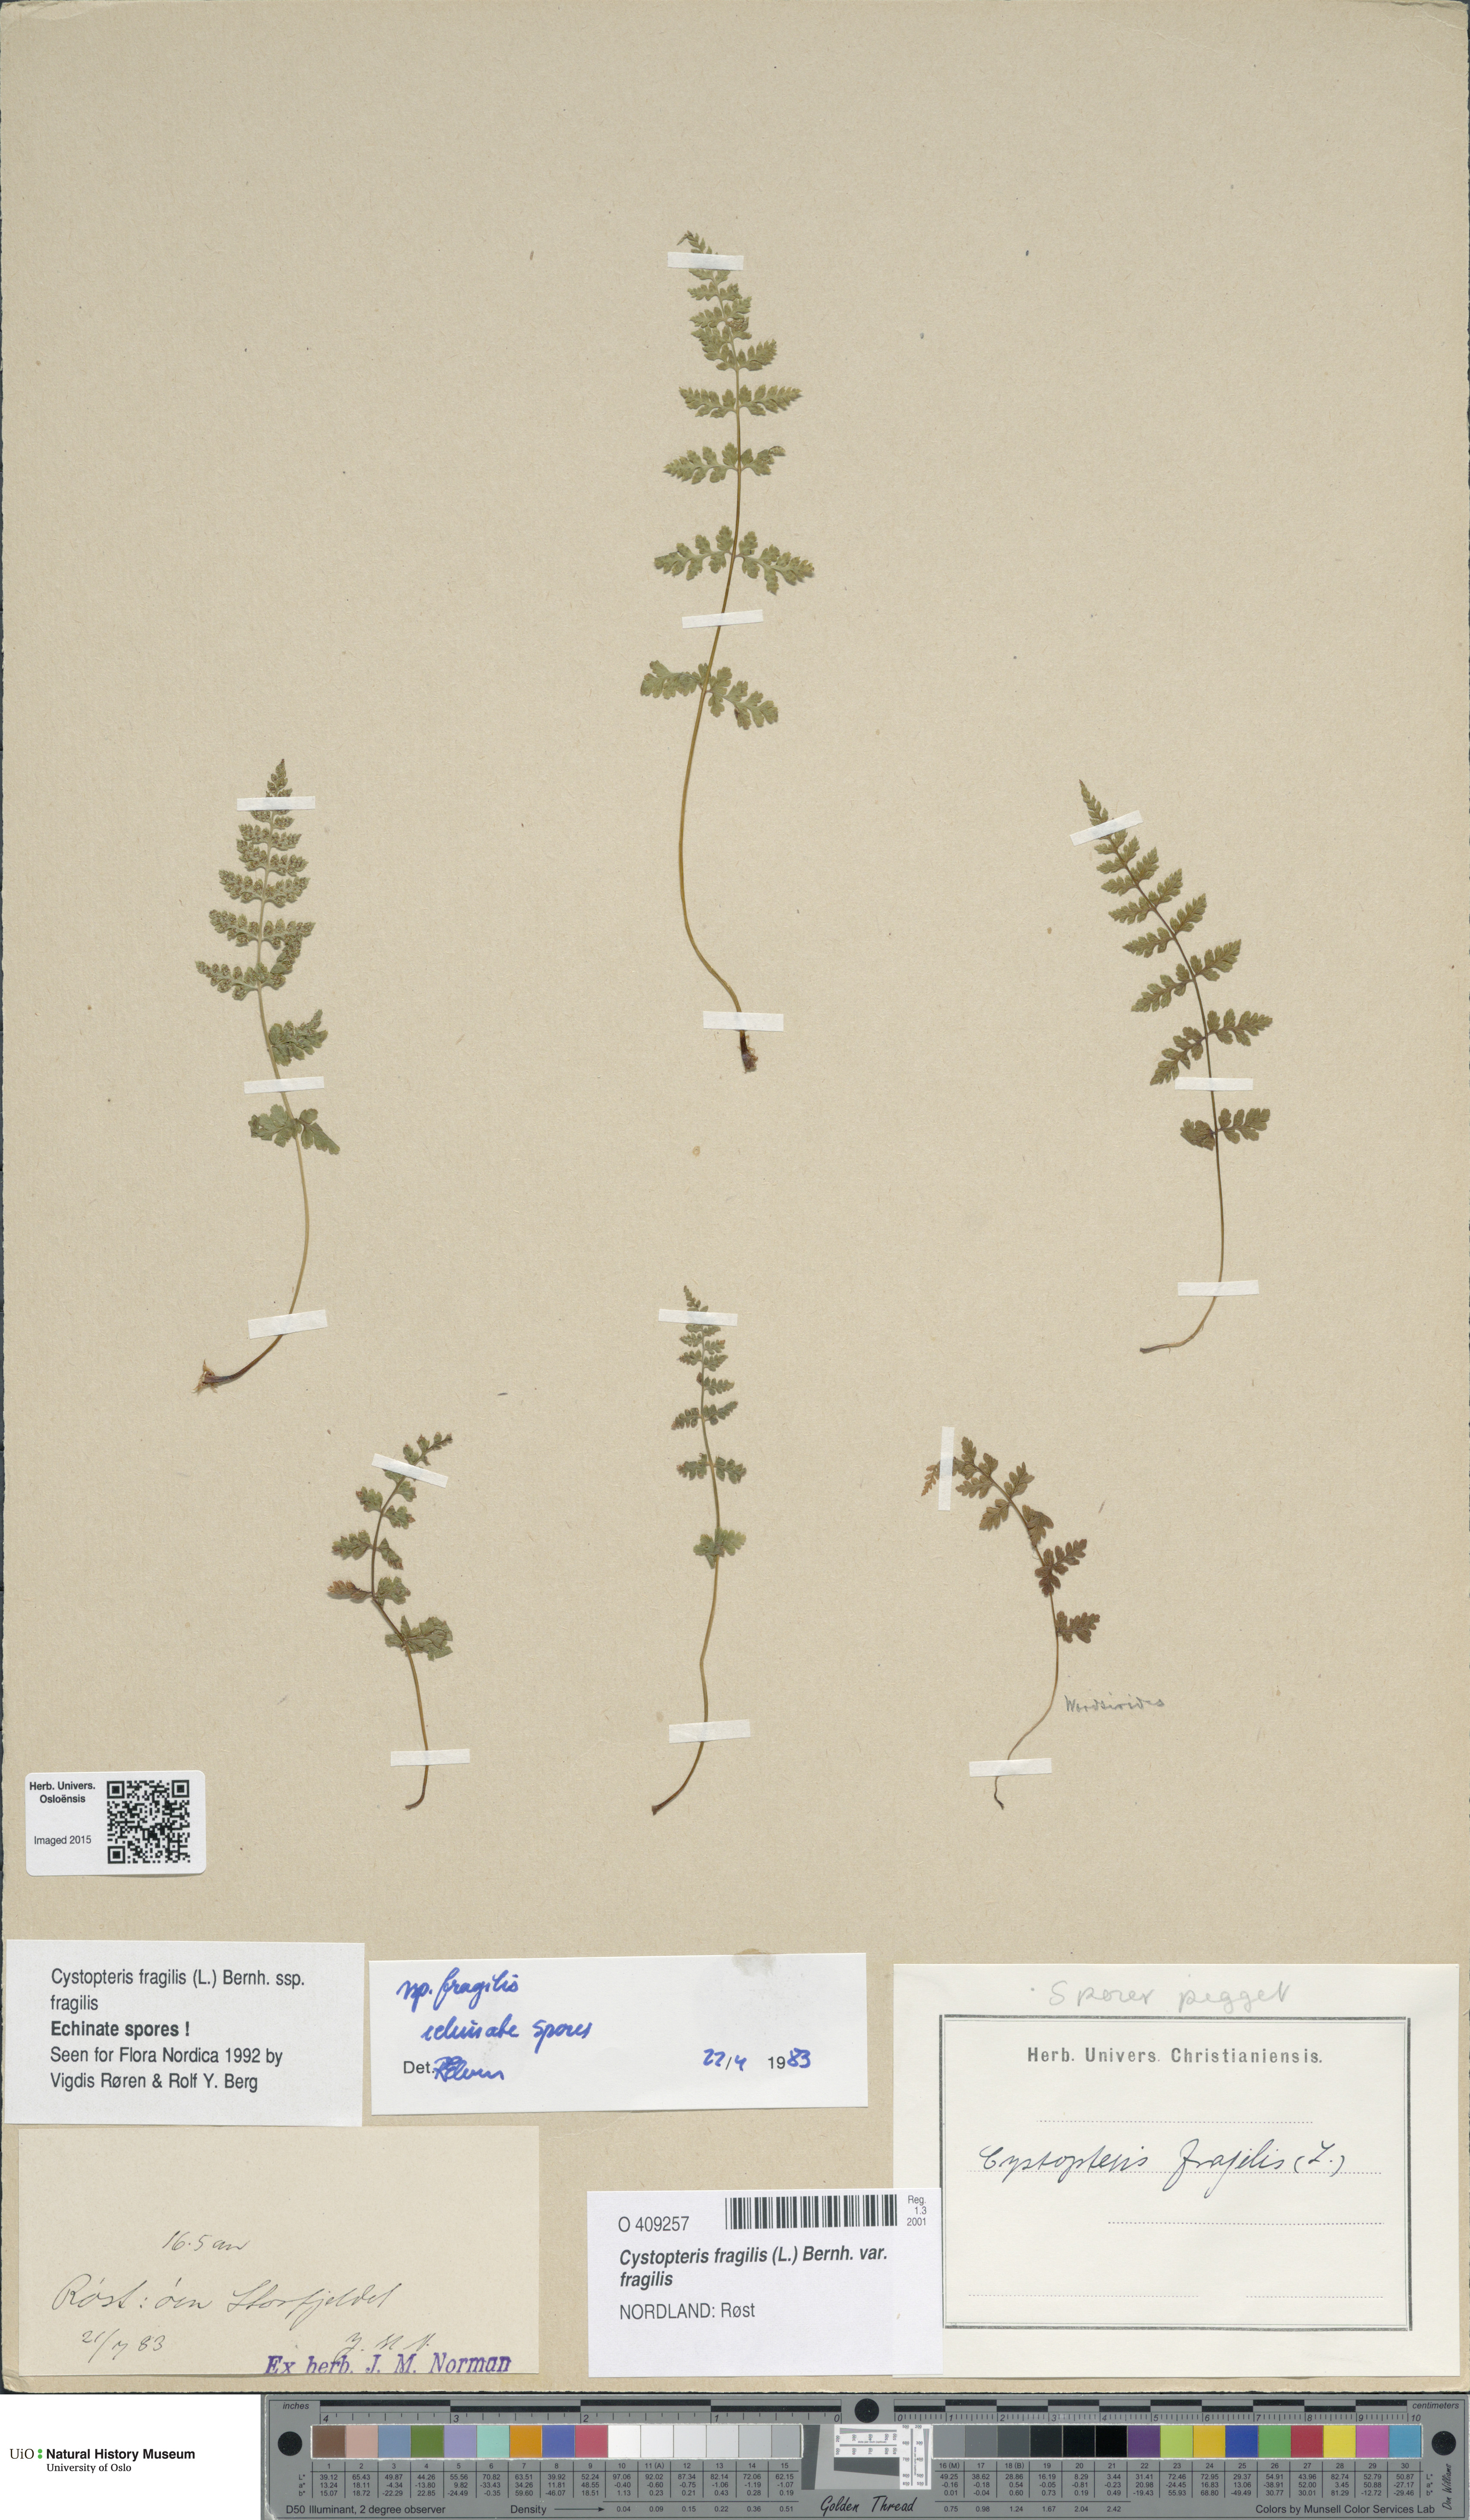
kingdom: Plantae
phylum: Tracheophyta
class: Polypodiopsida
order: Polypodiales
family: Cystopteridaceae
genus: Cystopteris
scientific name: Cystopteris fragilis
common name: Brittle bladder fern
